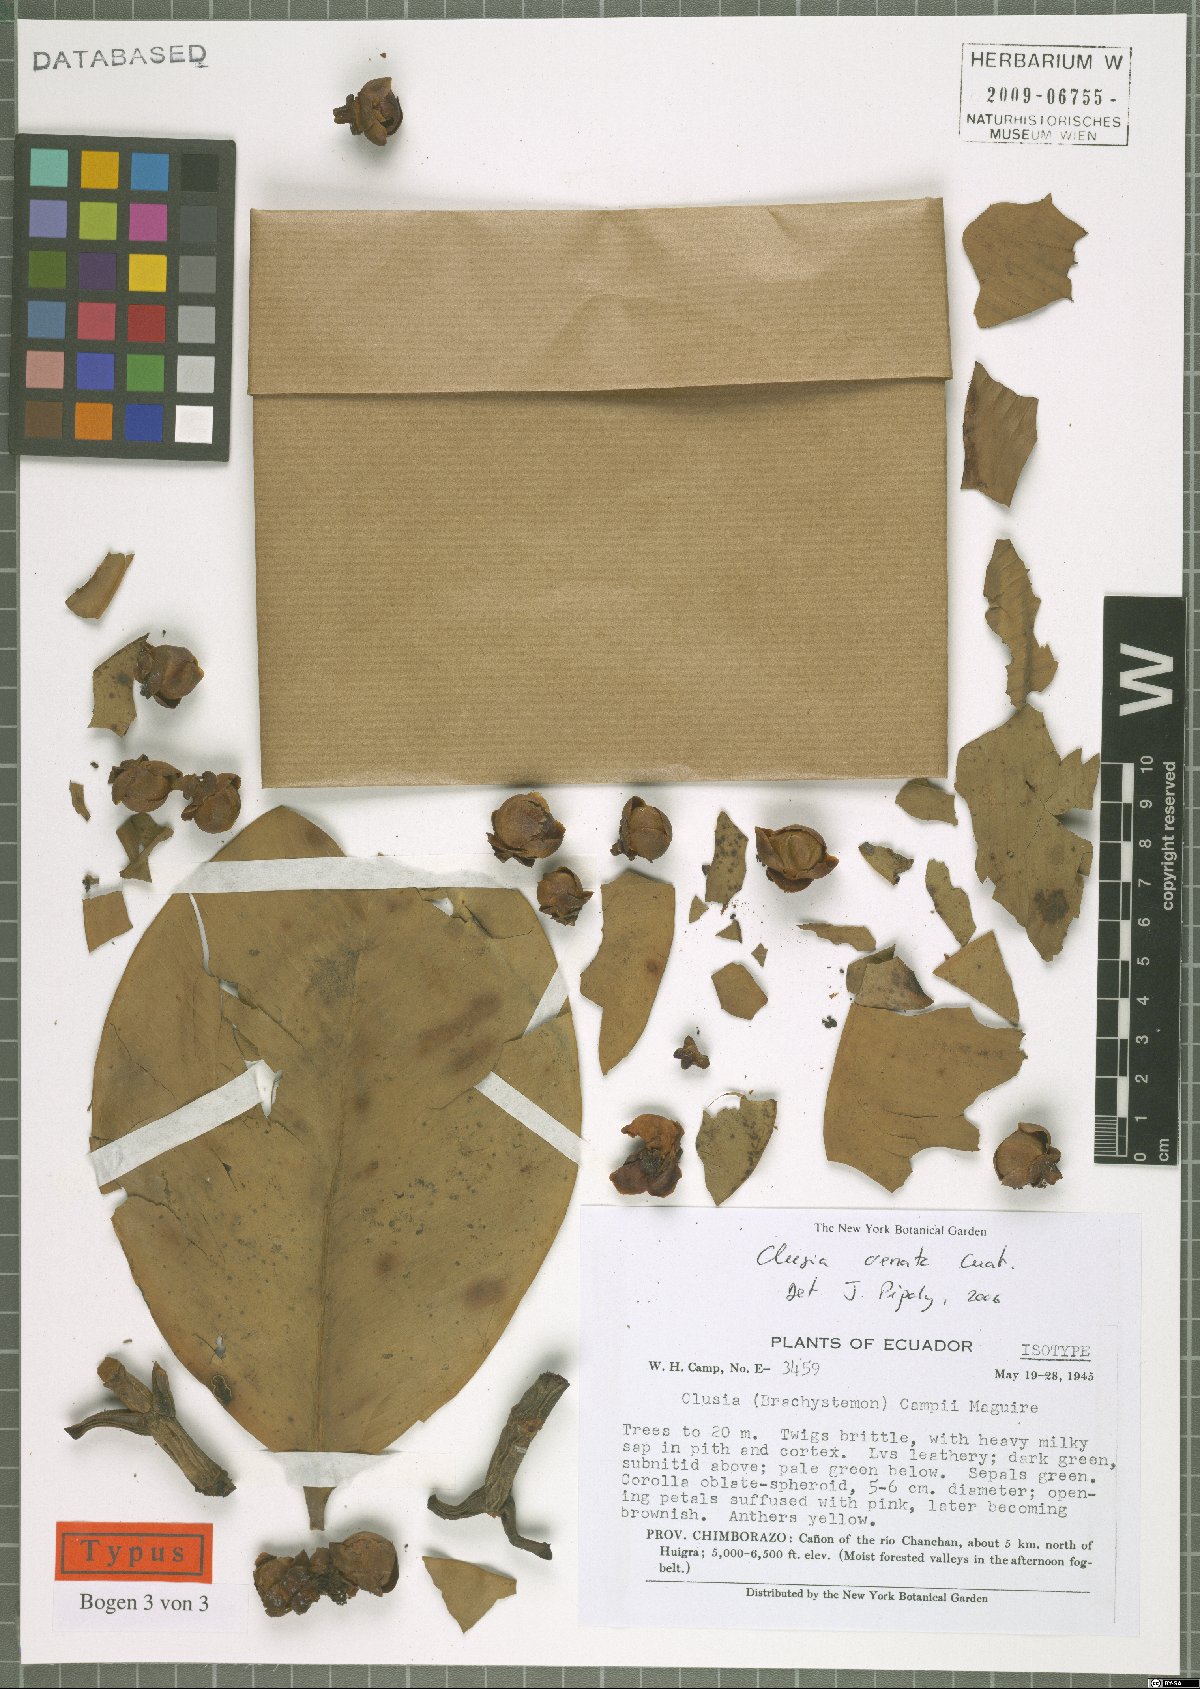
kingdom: Plantae
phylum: Tracheophyta
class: Magnoliopsida
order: Malpighiales
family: Clusiaceae
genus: Clusia
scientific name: Clusia crenata
